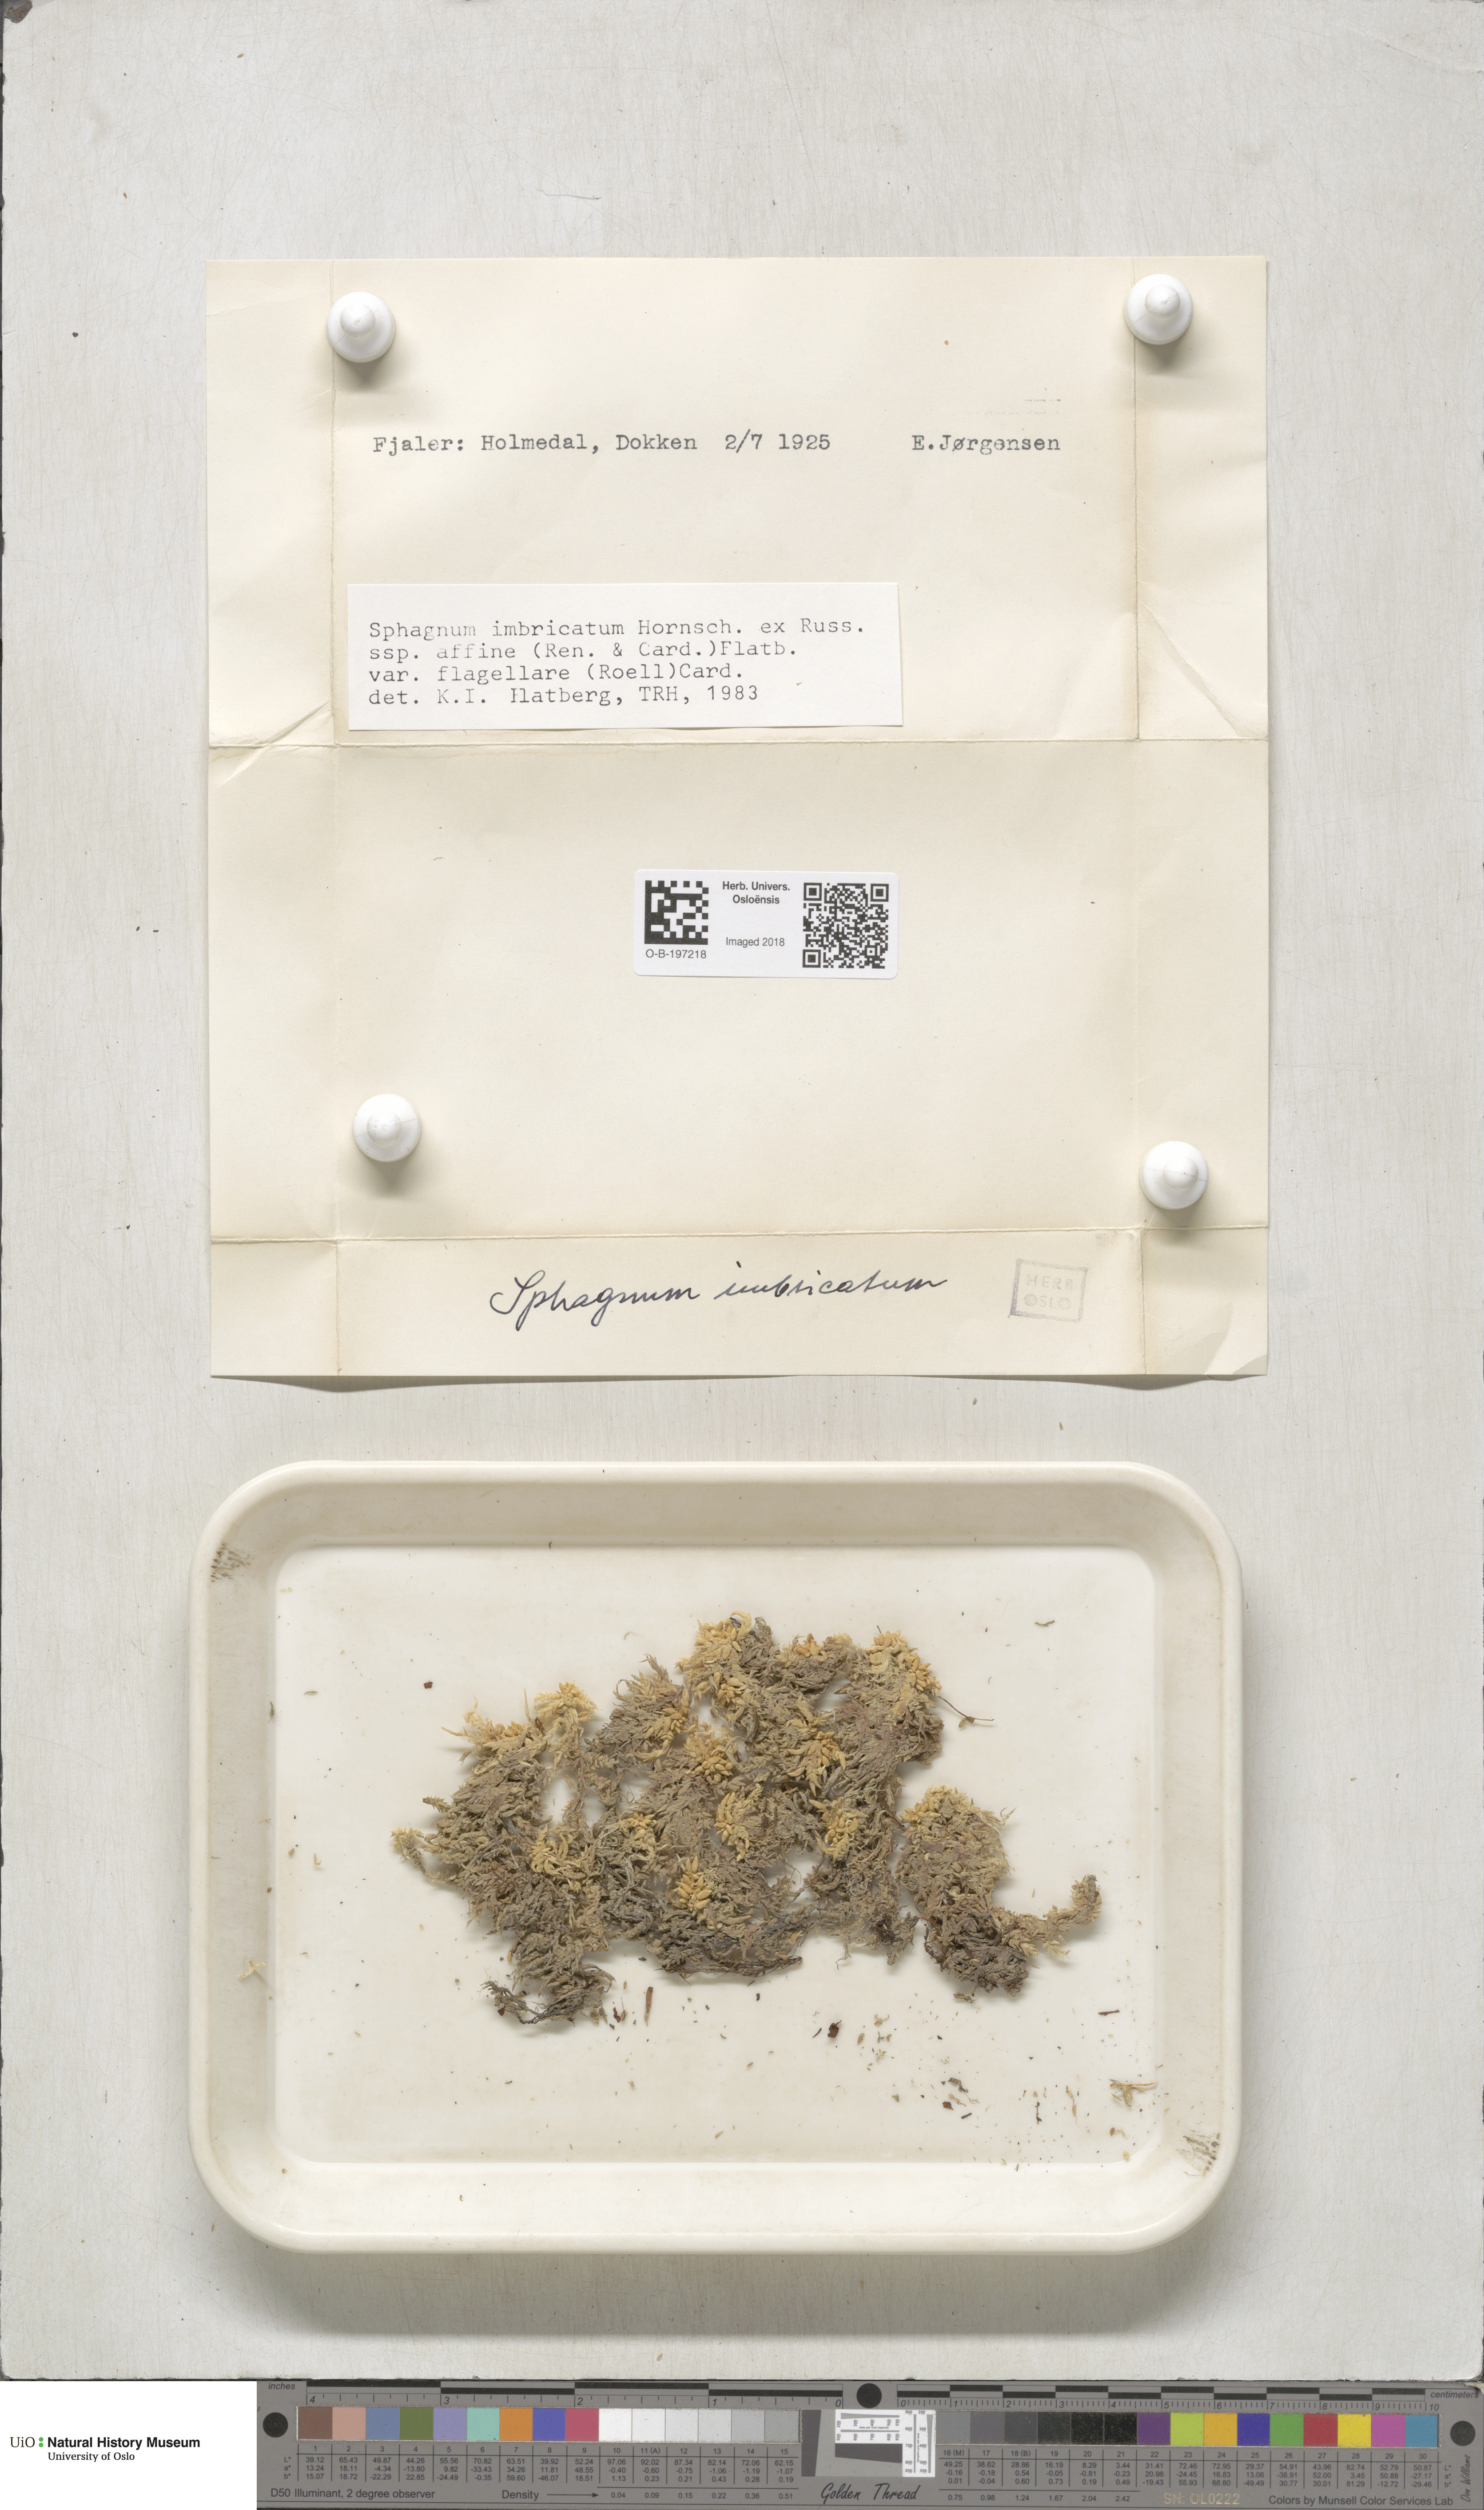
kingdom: Plantae
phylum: Bryophyta
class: Sphagnopsida
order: Sphagnales
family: Sphagnaceae
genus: Sphagnum
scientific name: Sphagnum affine
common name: Imbricate peat moss
